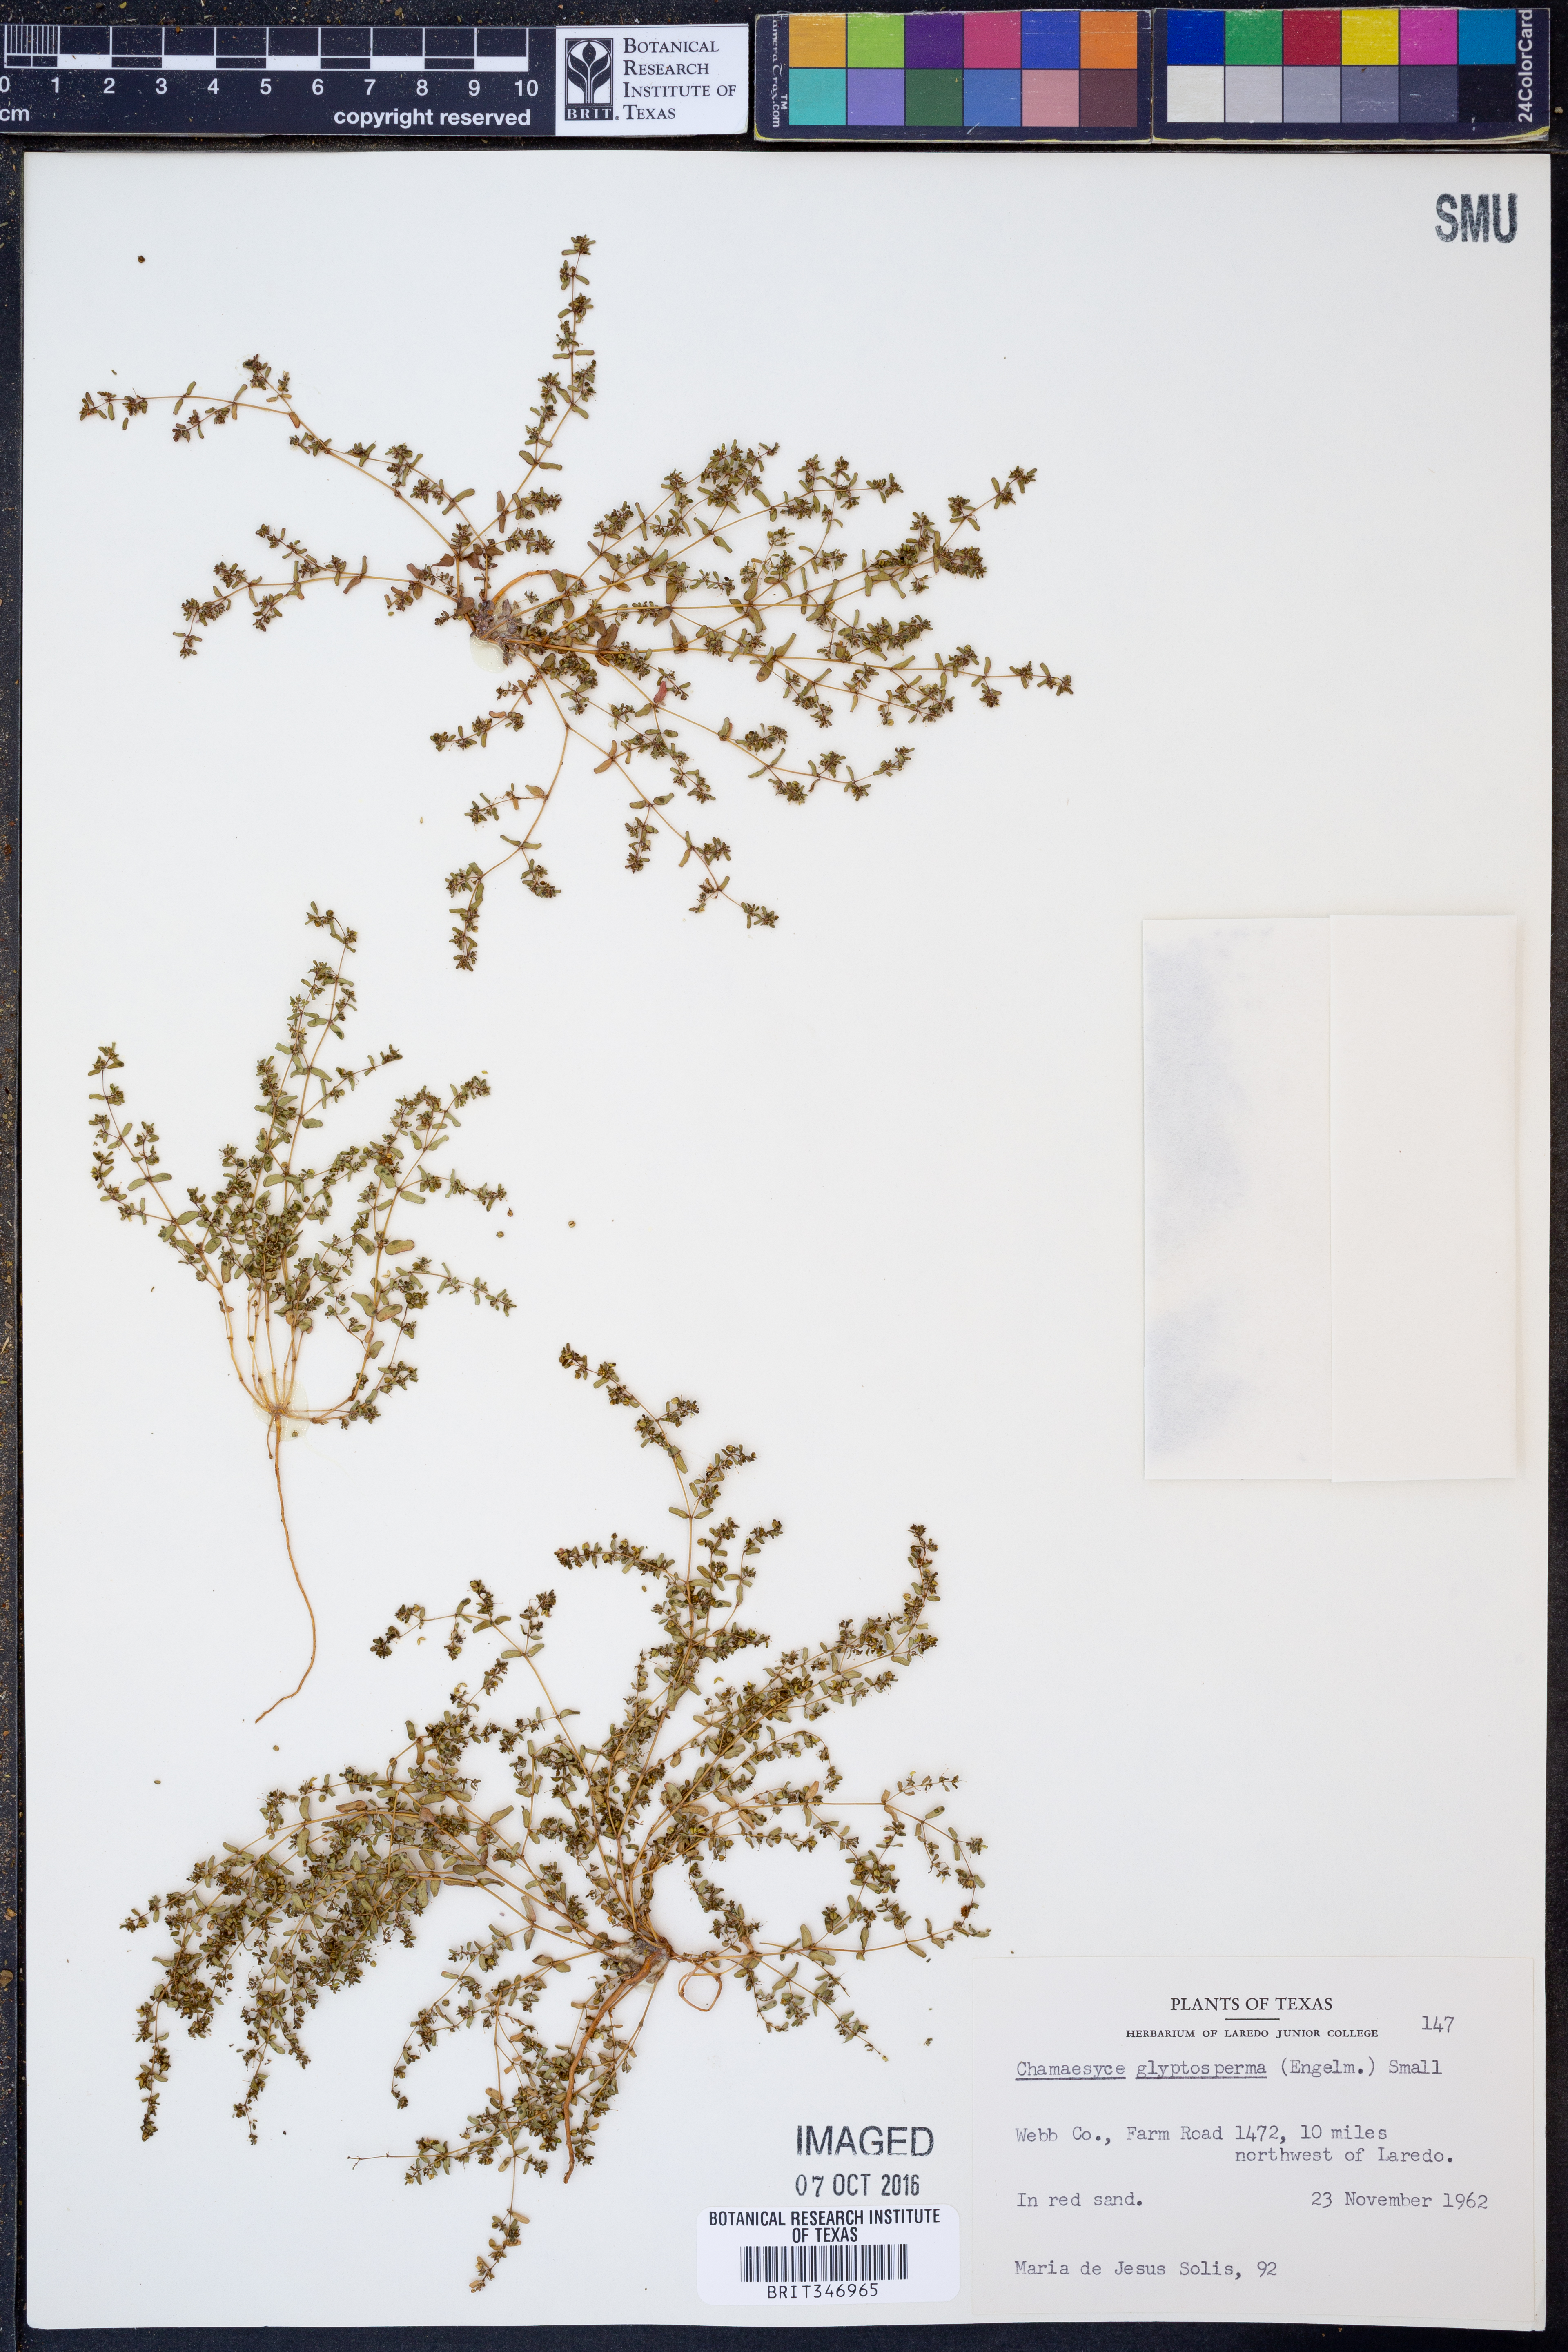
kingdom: Plantae
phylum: Tracheophyta
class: Magnoliopsida
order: Malpighiales
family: Euphorbiaceae
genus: Euphorbia
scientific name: Euphorbia glyptosperma
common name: Corrugate-seeded spurge
